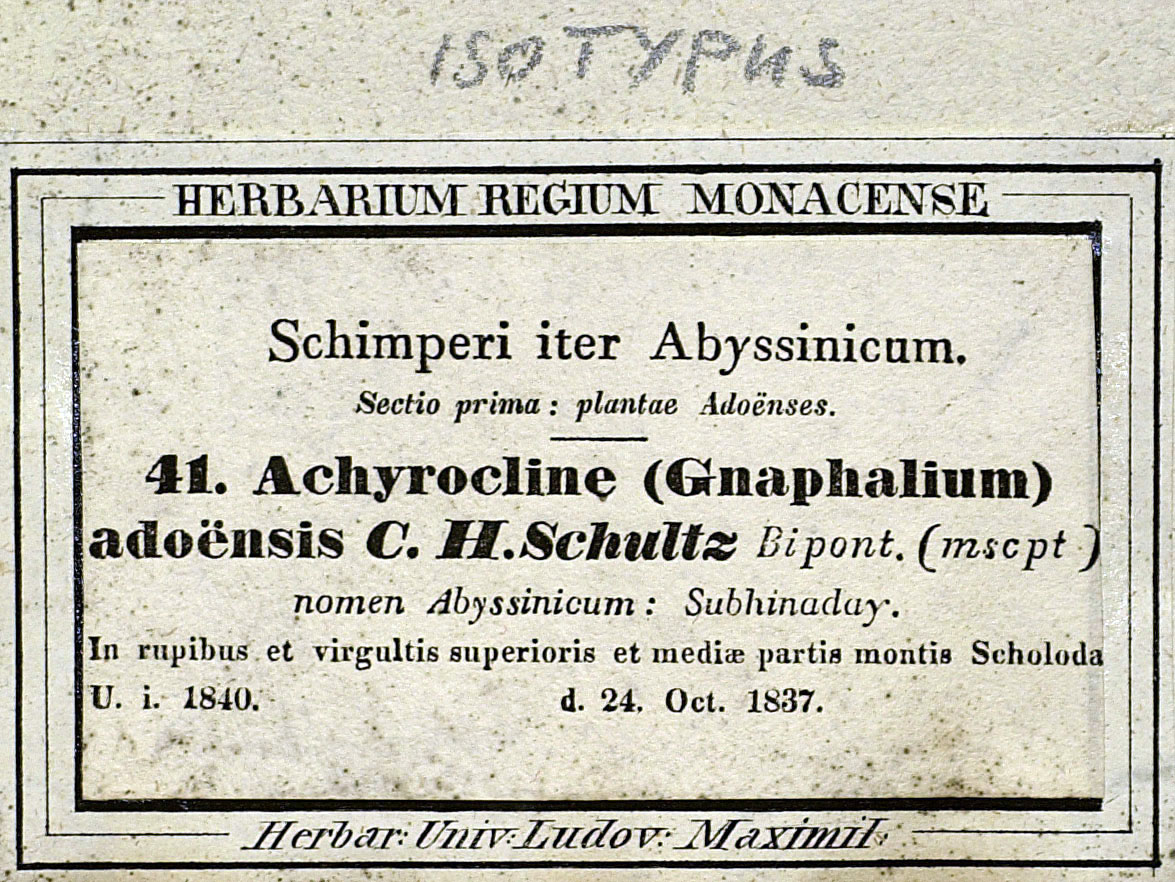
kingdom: Plantae
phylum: Tracheophyta
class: Magnoliopsida
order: Asterales
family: Asteraceae
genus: Helichrysum
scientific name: Helichrysum schimperi
